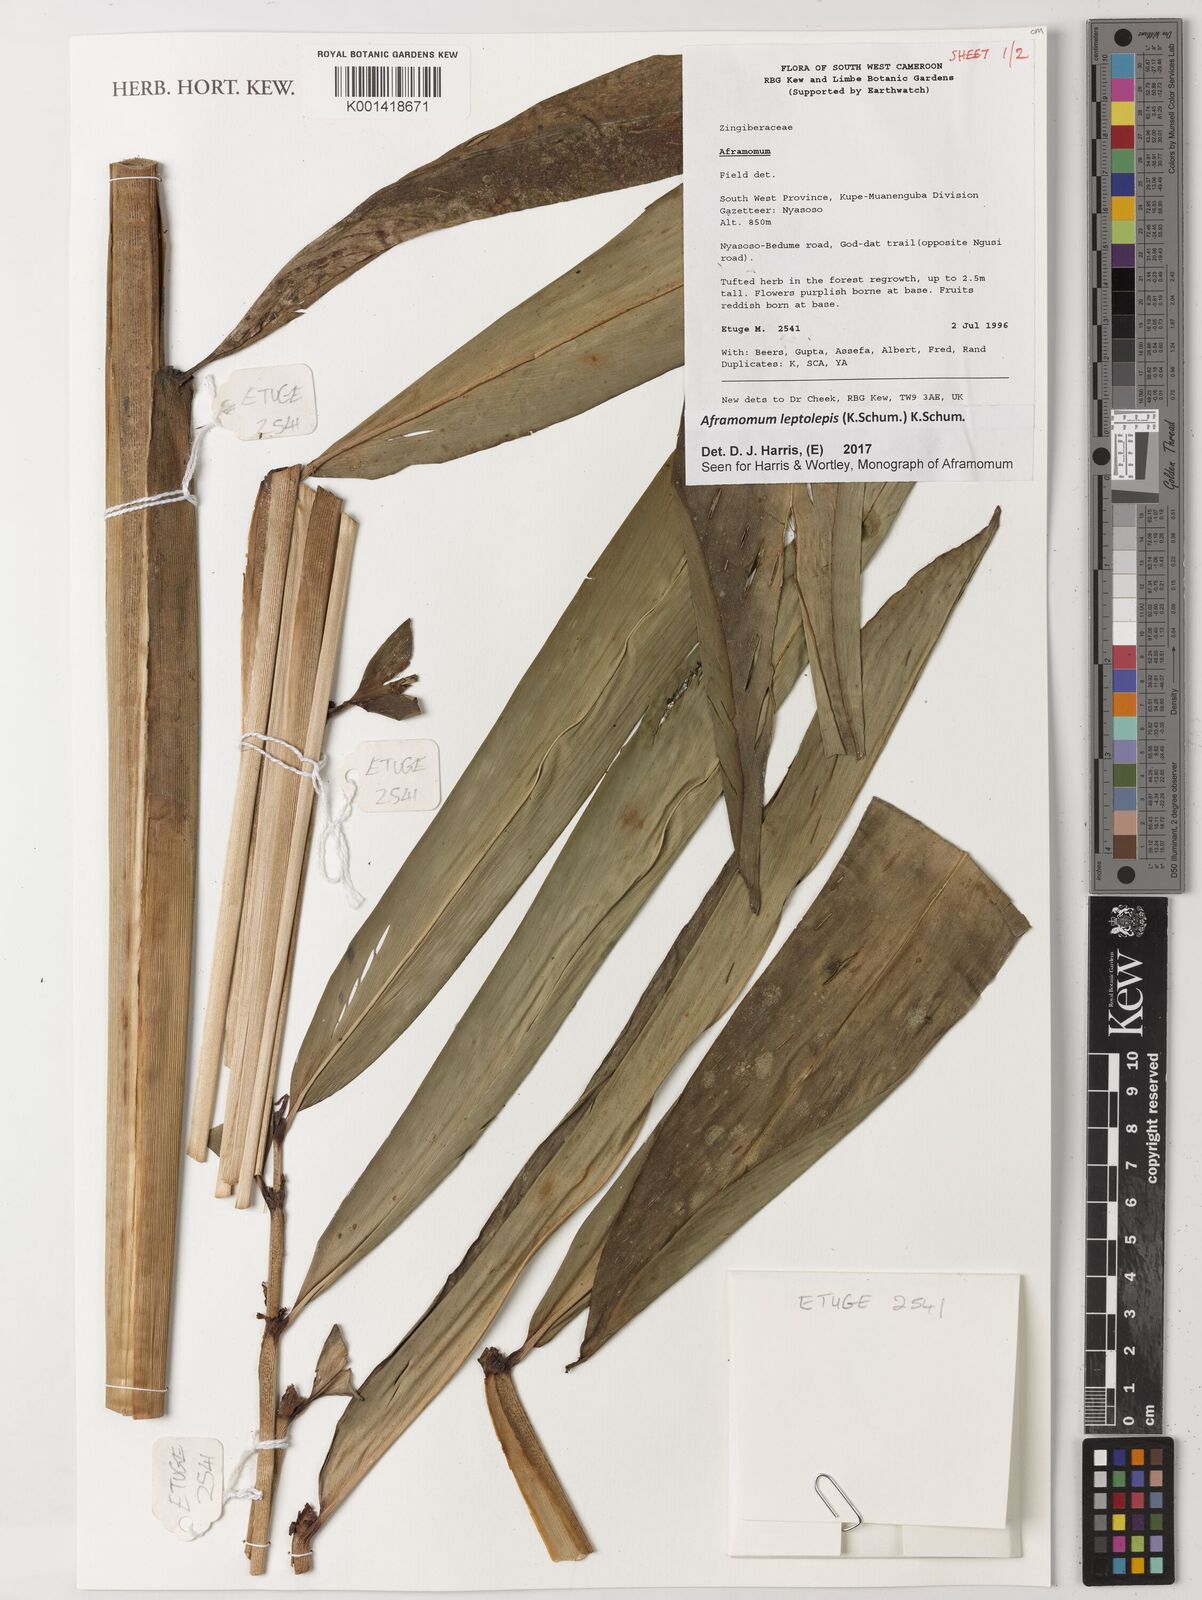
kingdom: Plantae
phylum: Tracheophyta
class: Liliopsida
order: Zingiberales
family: Zingiberaceae
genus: Aframomum
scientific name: Aframomum leptolepis
